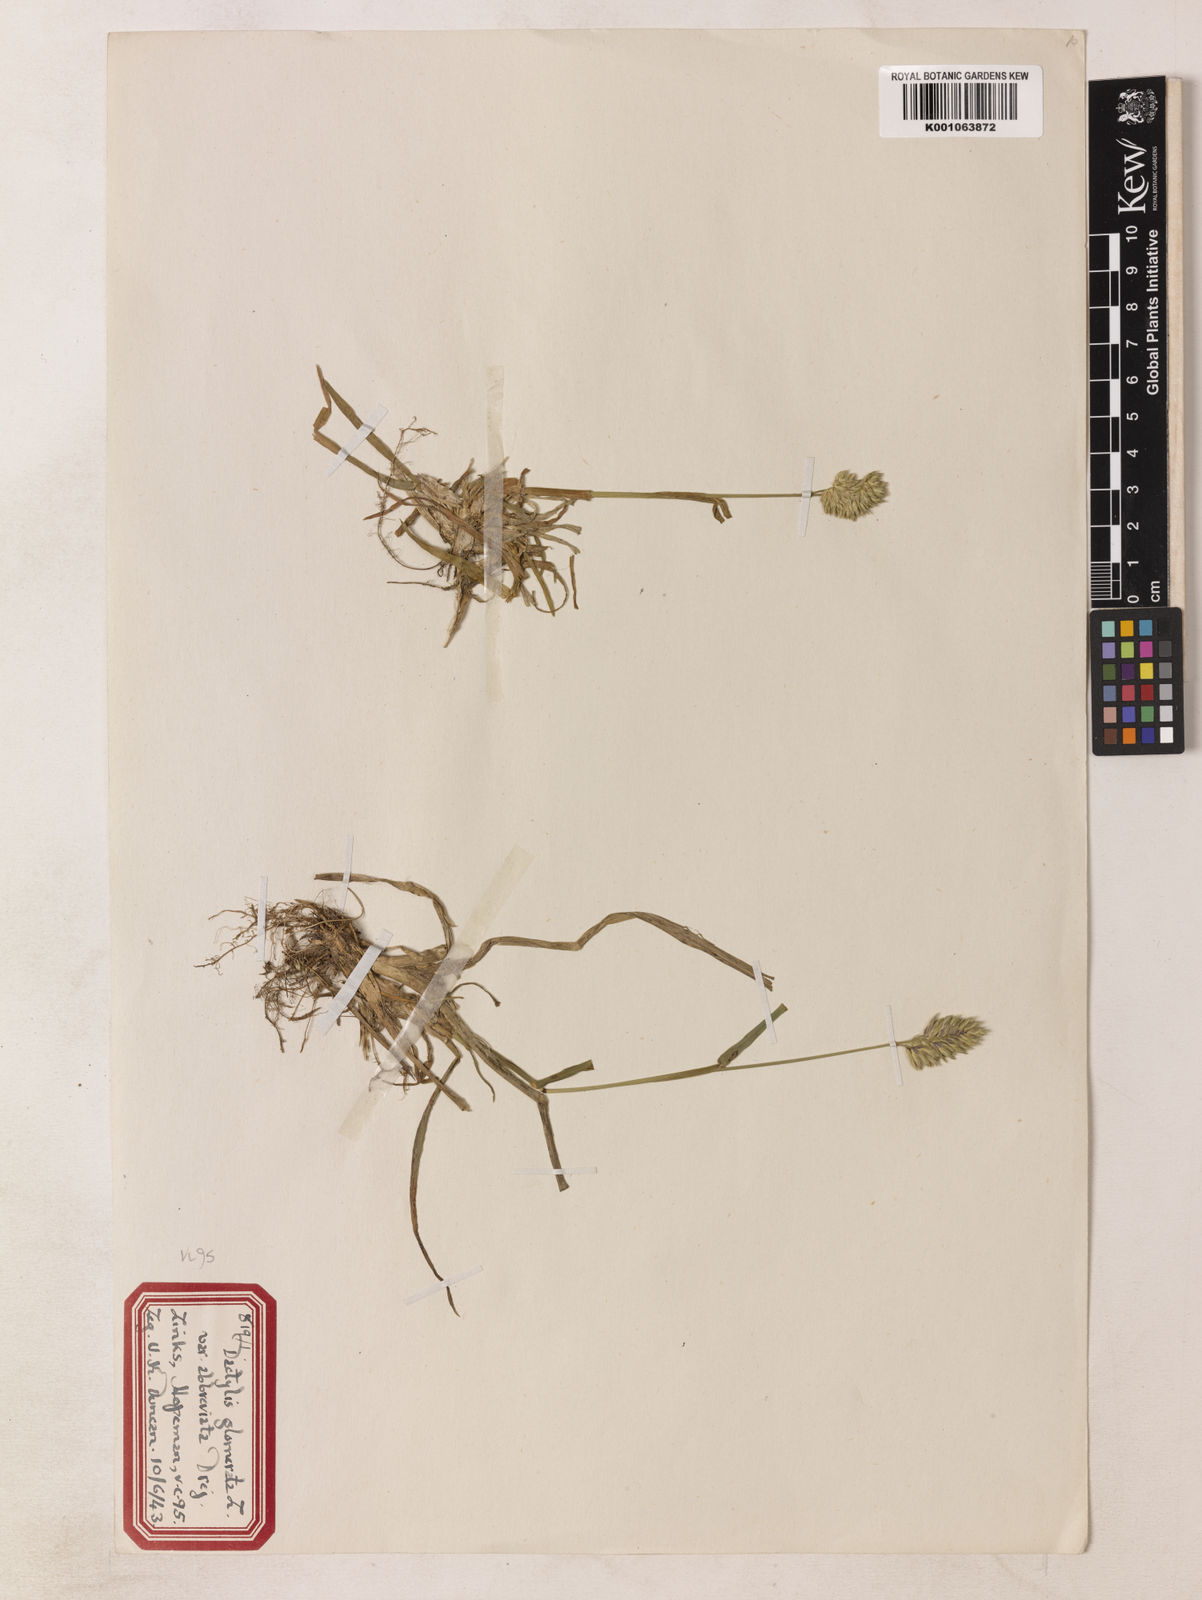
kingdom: Plantae
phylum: Tracheophyta
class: Liliopsida
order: Poales
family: Poaceae
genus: Dactylis
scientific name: Dactylis glomerata
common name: Orchardgrass
